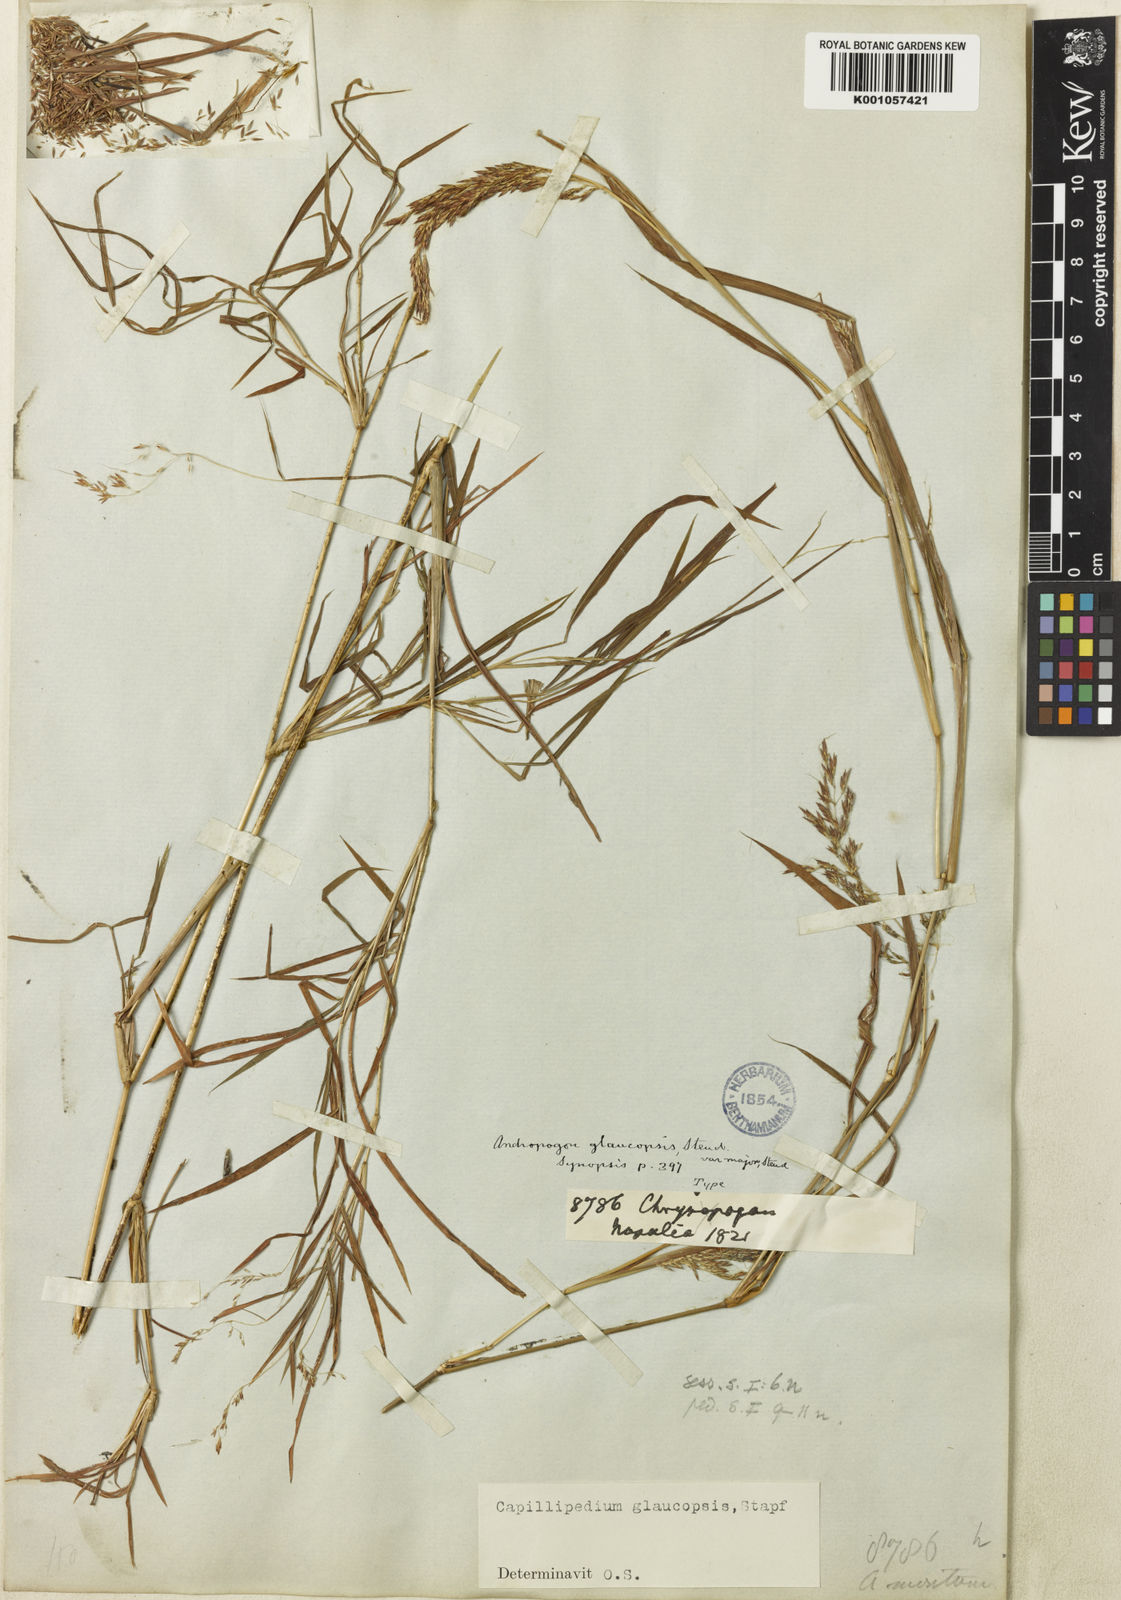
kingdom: Plantae
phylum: Tracheophyta
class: Liliopsida
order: Poales
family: Poaceae
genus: Capillipedium
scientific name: Capillipedium assimile
